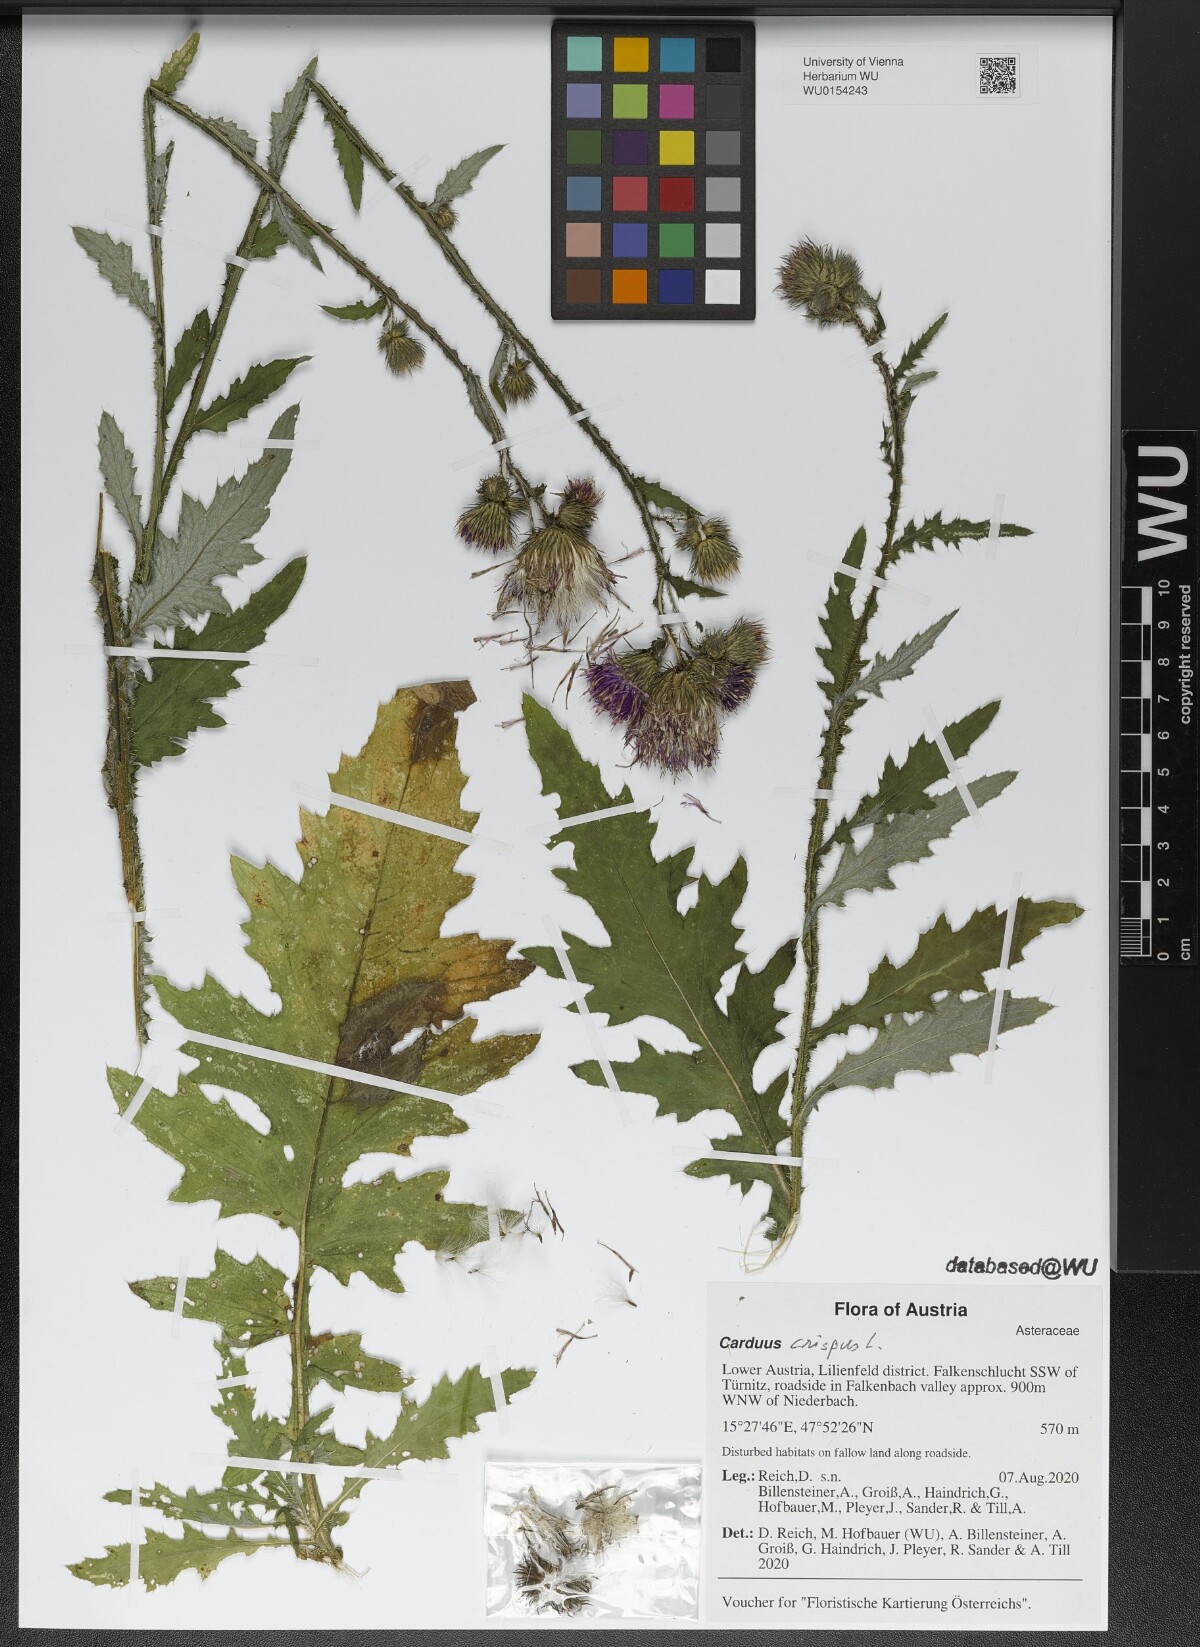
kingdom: Plantae
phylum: Tracheophyta
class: Magnoliopsida
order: Asterales
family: Asteraceae
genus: Carduus
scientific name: Carduus crispus
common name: Welted thistle
